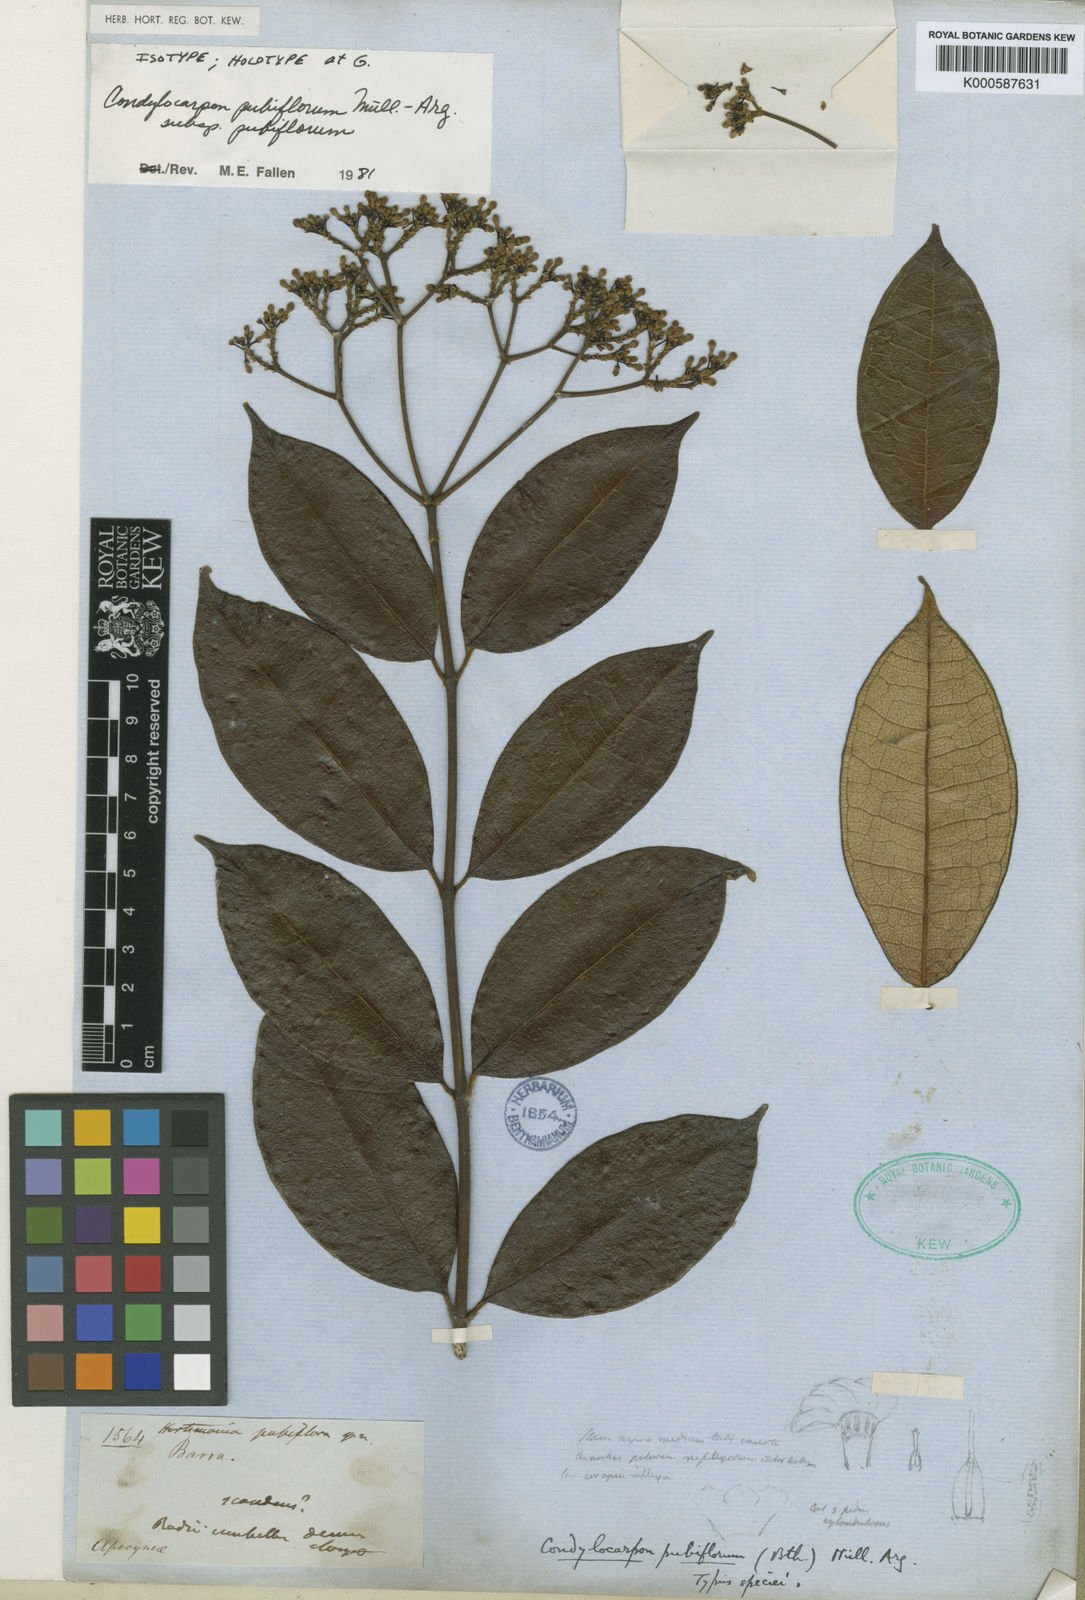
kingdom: Plantae
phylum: Tracheophyta
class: Magnoliopsida
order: Gentianales
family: Apocynaceae
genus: Condylocarpon
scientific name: Condylocarpon
